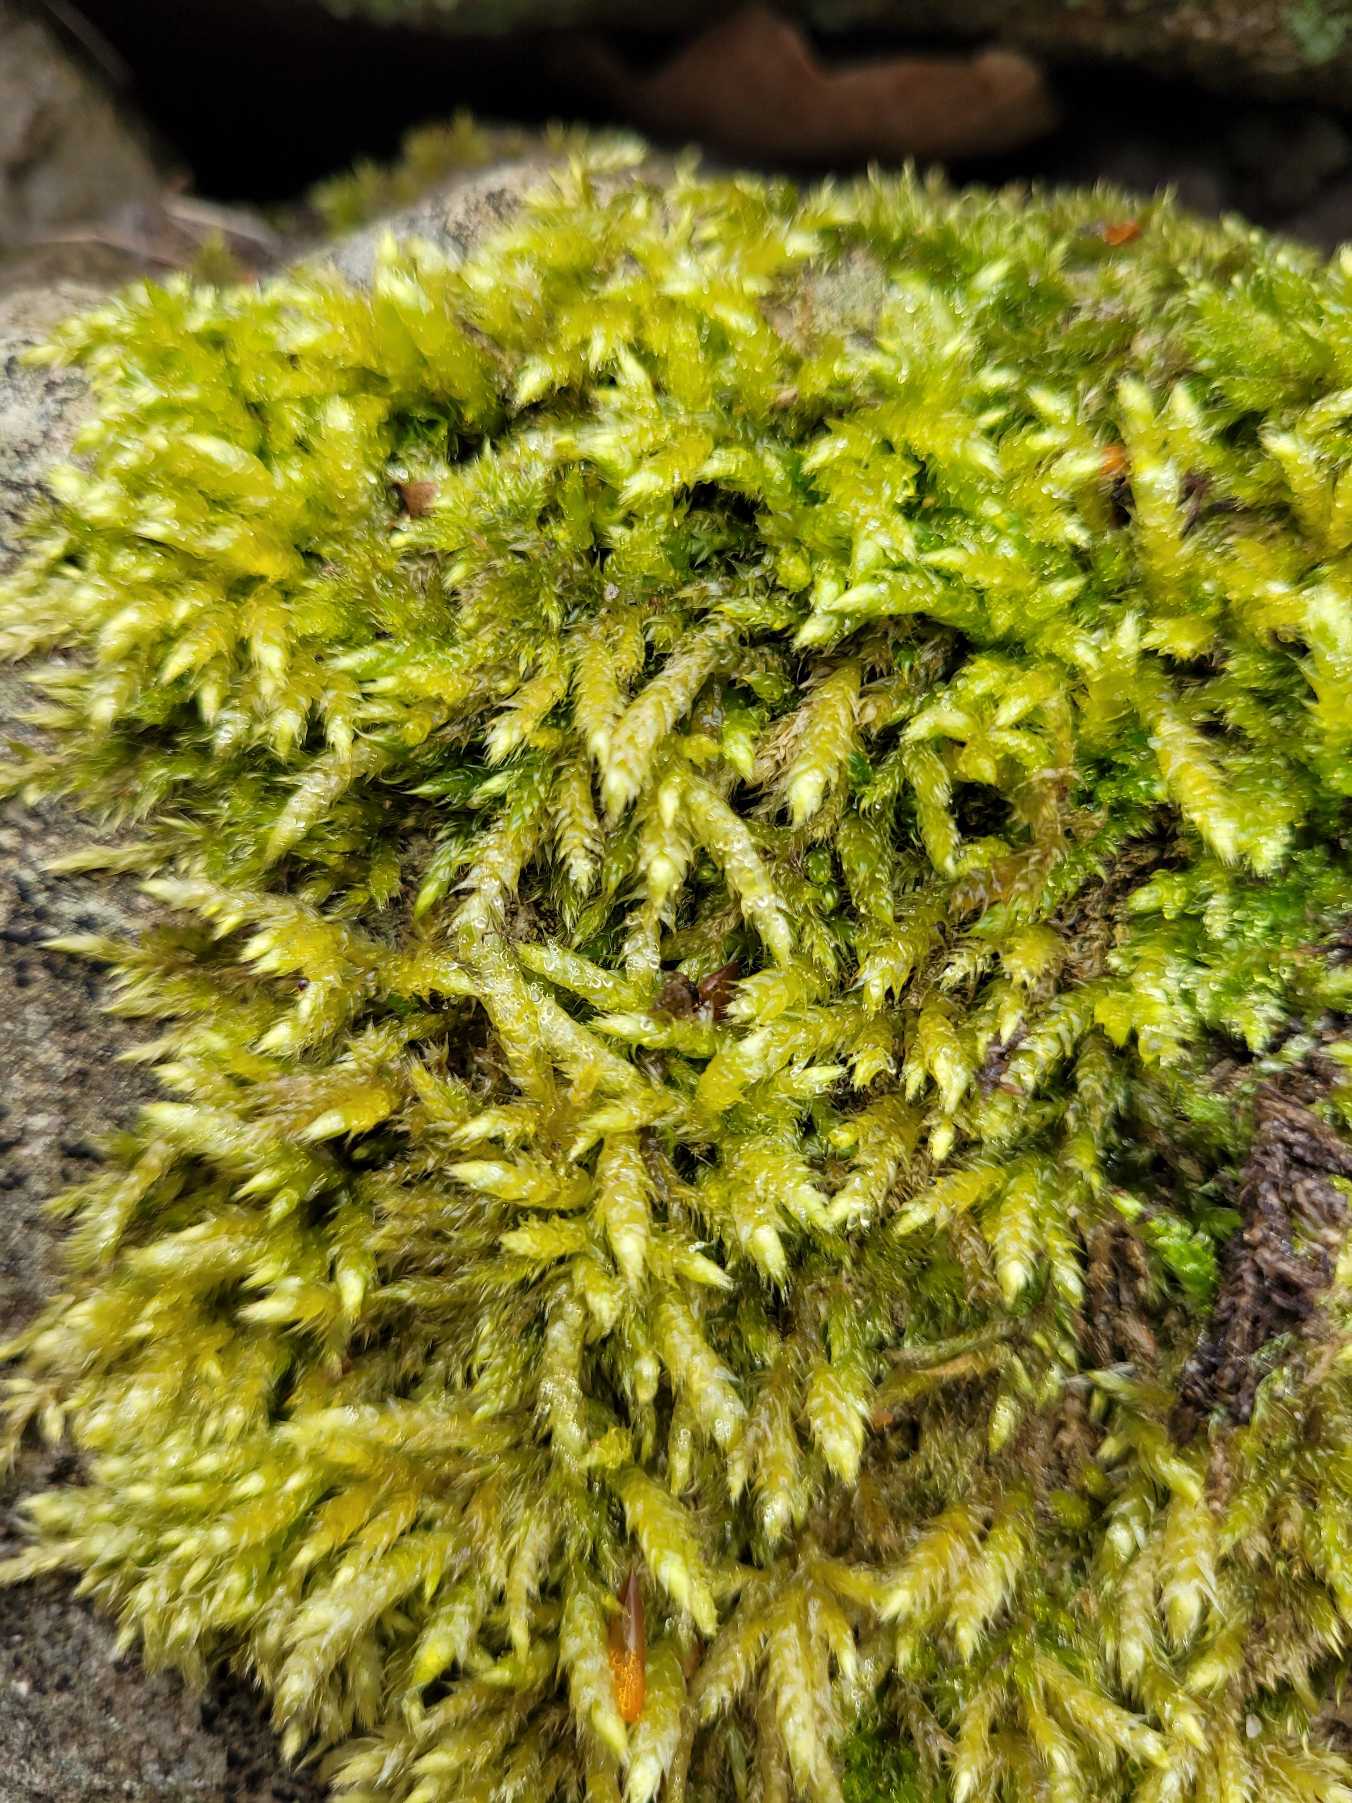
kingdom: Plantae
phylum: Bryophyta
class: Bryopsida
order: Hypnales
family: Brachytheciaceae
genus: Brachythecium
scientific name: Brachythecium rutabulum
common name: Almindelig kortkapsel
